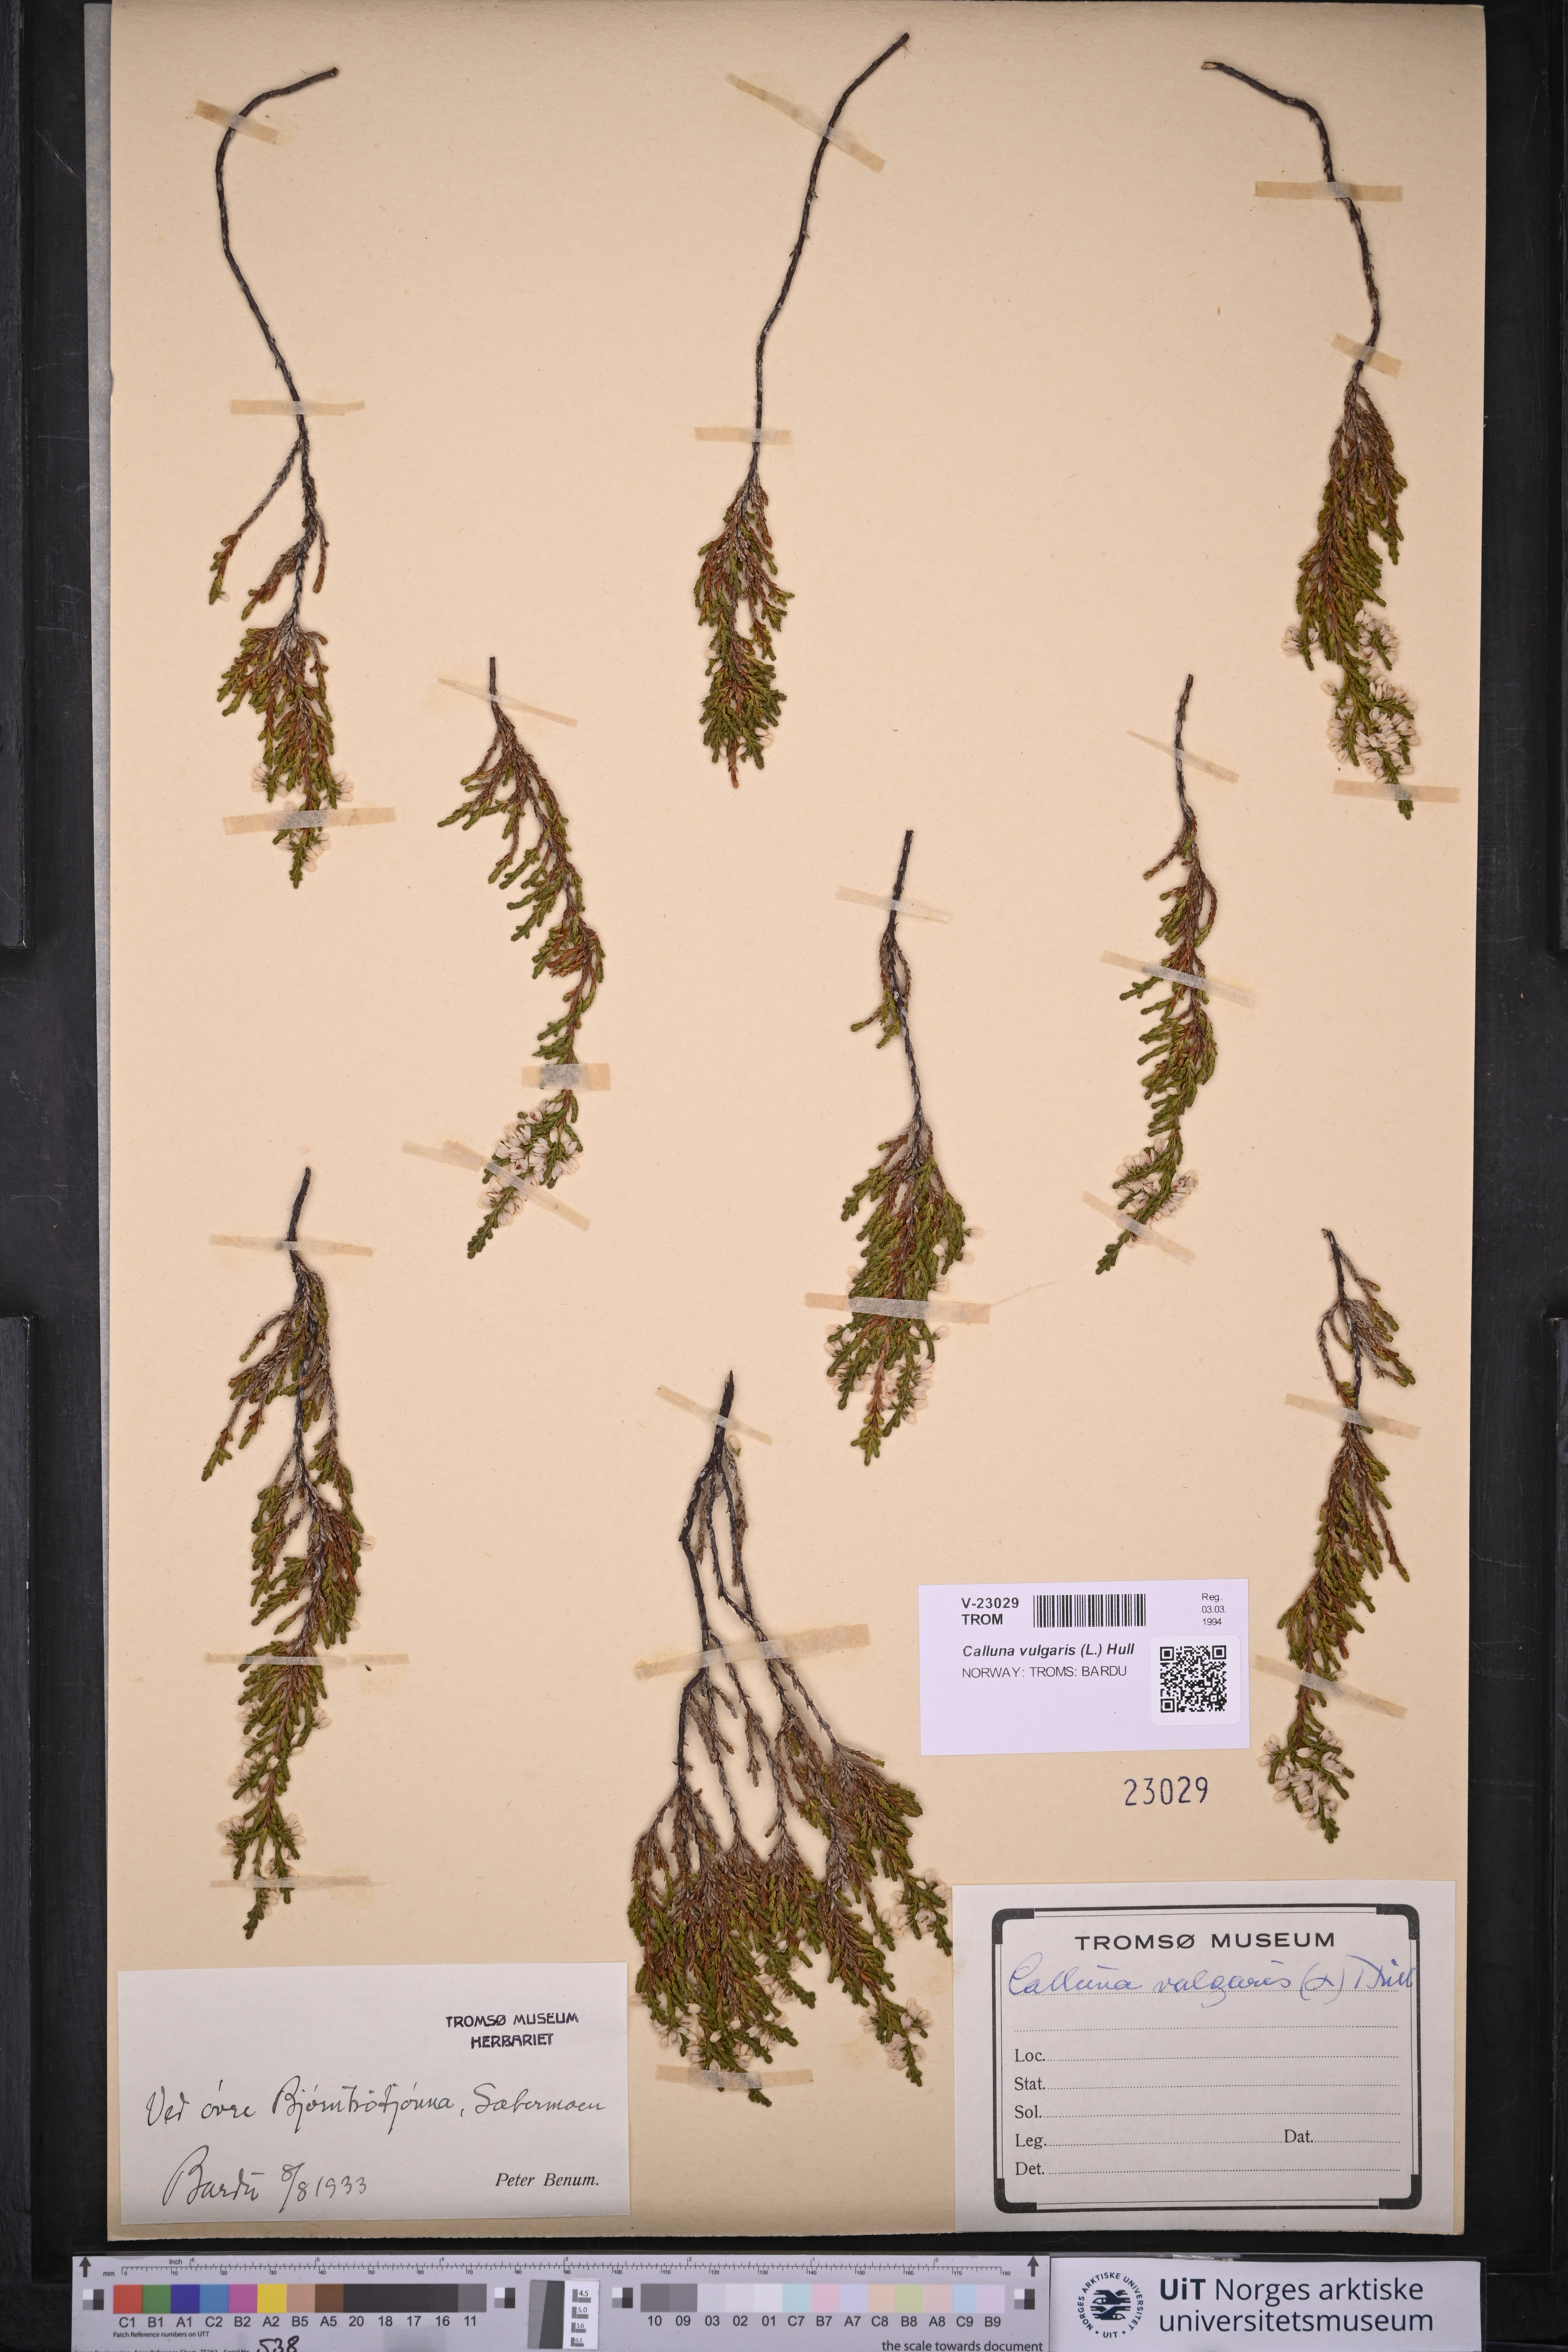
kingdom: Plantae
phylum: Tracheophyta
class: Magnoliopsida
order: Ericales
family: Ericaceae
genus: Calluna
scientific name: Calluna vulgaris
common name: Heather
